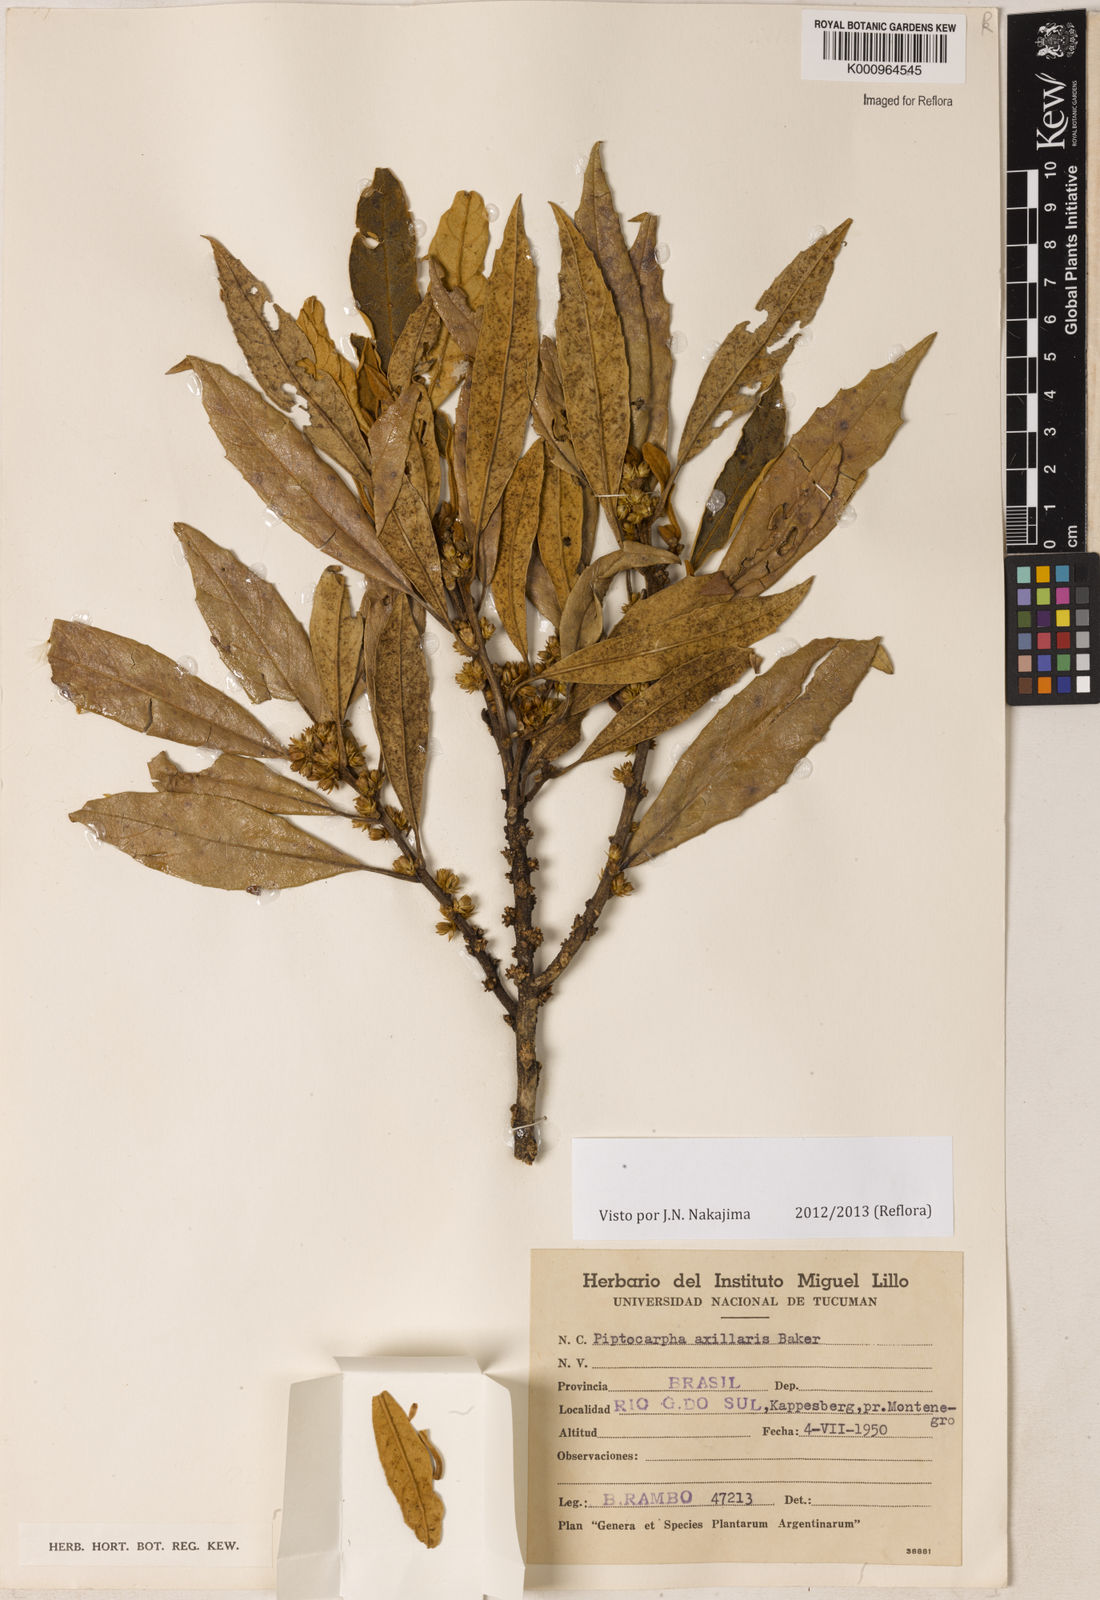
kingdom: Plantae
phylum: Tracheophyta
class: Magnoliopsida
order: Asterales
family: Asteraceae
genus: Piptocarpha
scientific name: Piptocarpha axillaris
